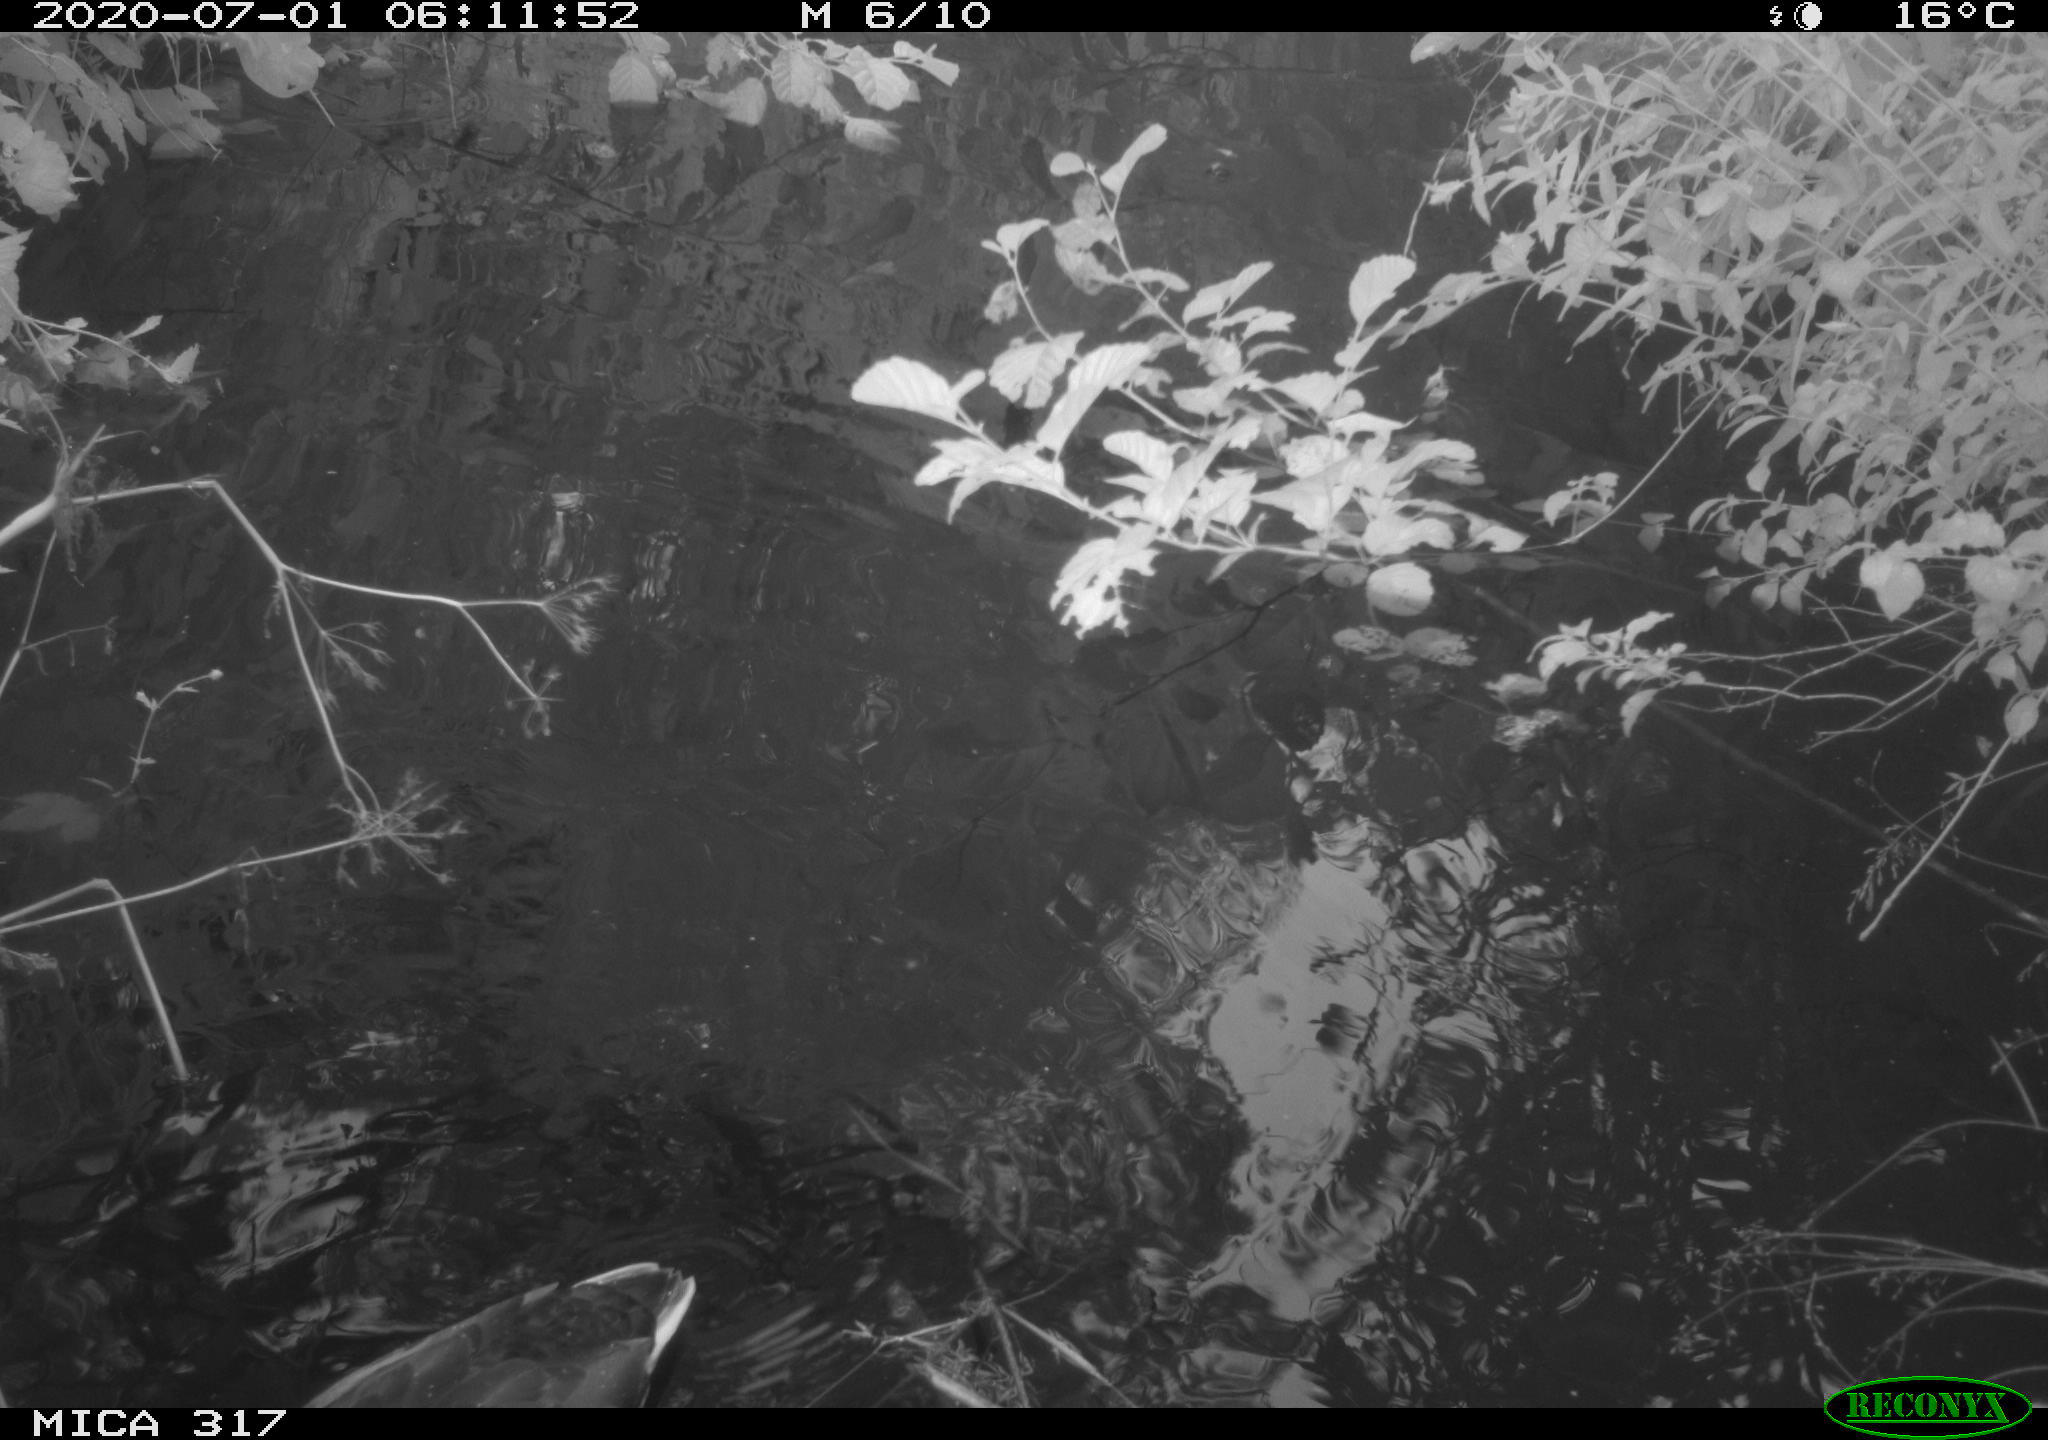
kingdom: Animalia
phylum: Chordata
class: Aves
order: Anseriformes
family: Anatidae
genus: Anas
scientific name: Anas platyrhynchos
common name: Mallard
